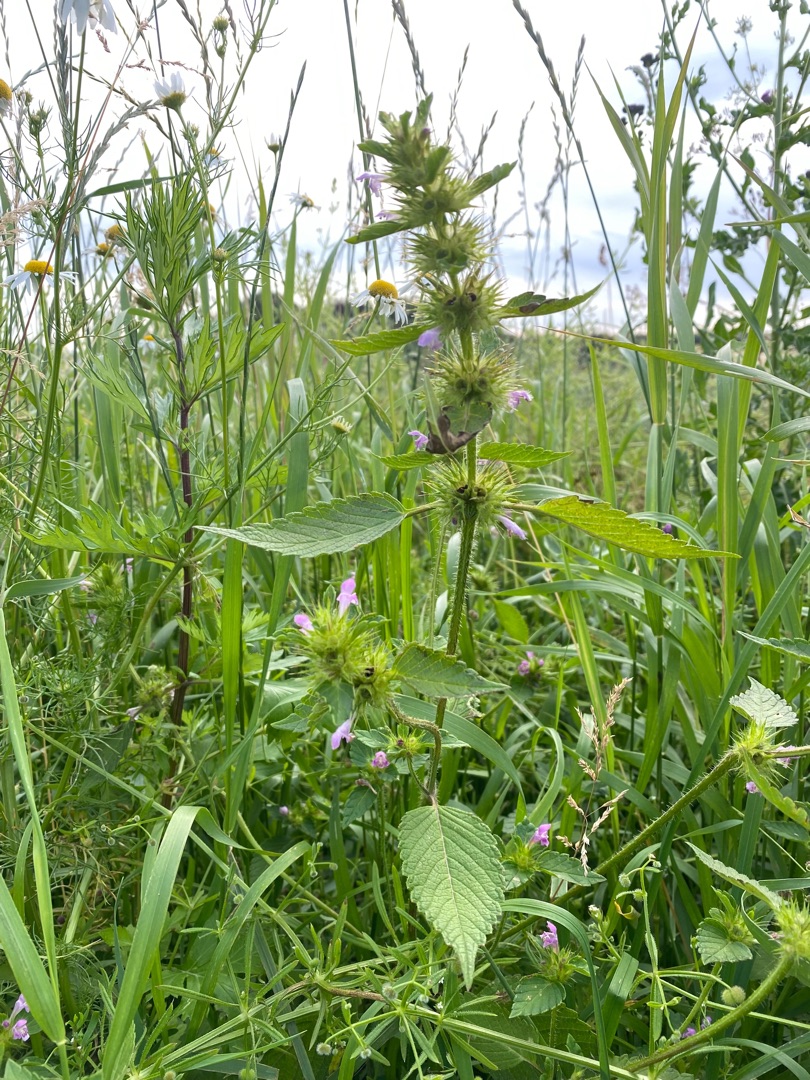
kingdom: Plantae
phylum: Tracheophyta
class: Magnoliopsida
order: Lamiales
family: Lamiaceae
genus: Galeopsis
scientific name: Galeopsis
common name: Hanekroslægten
